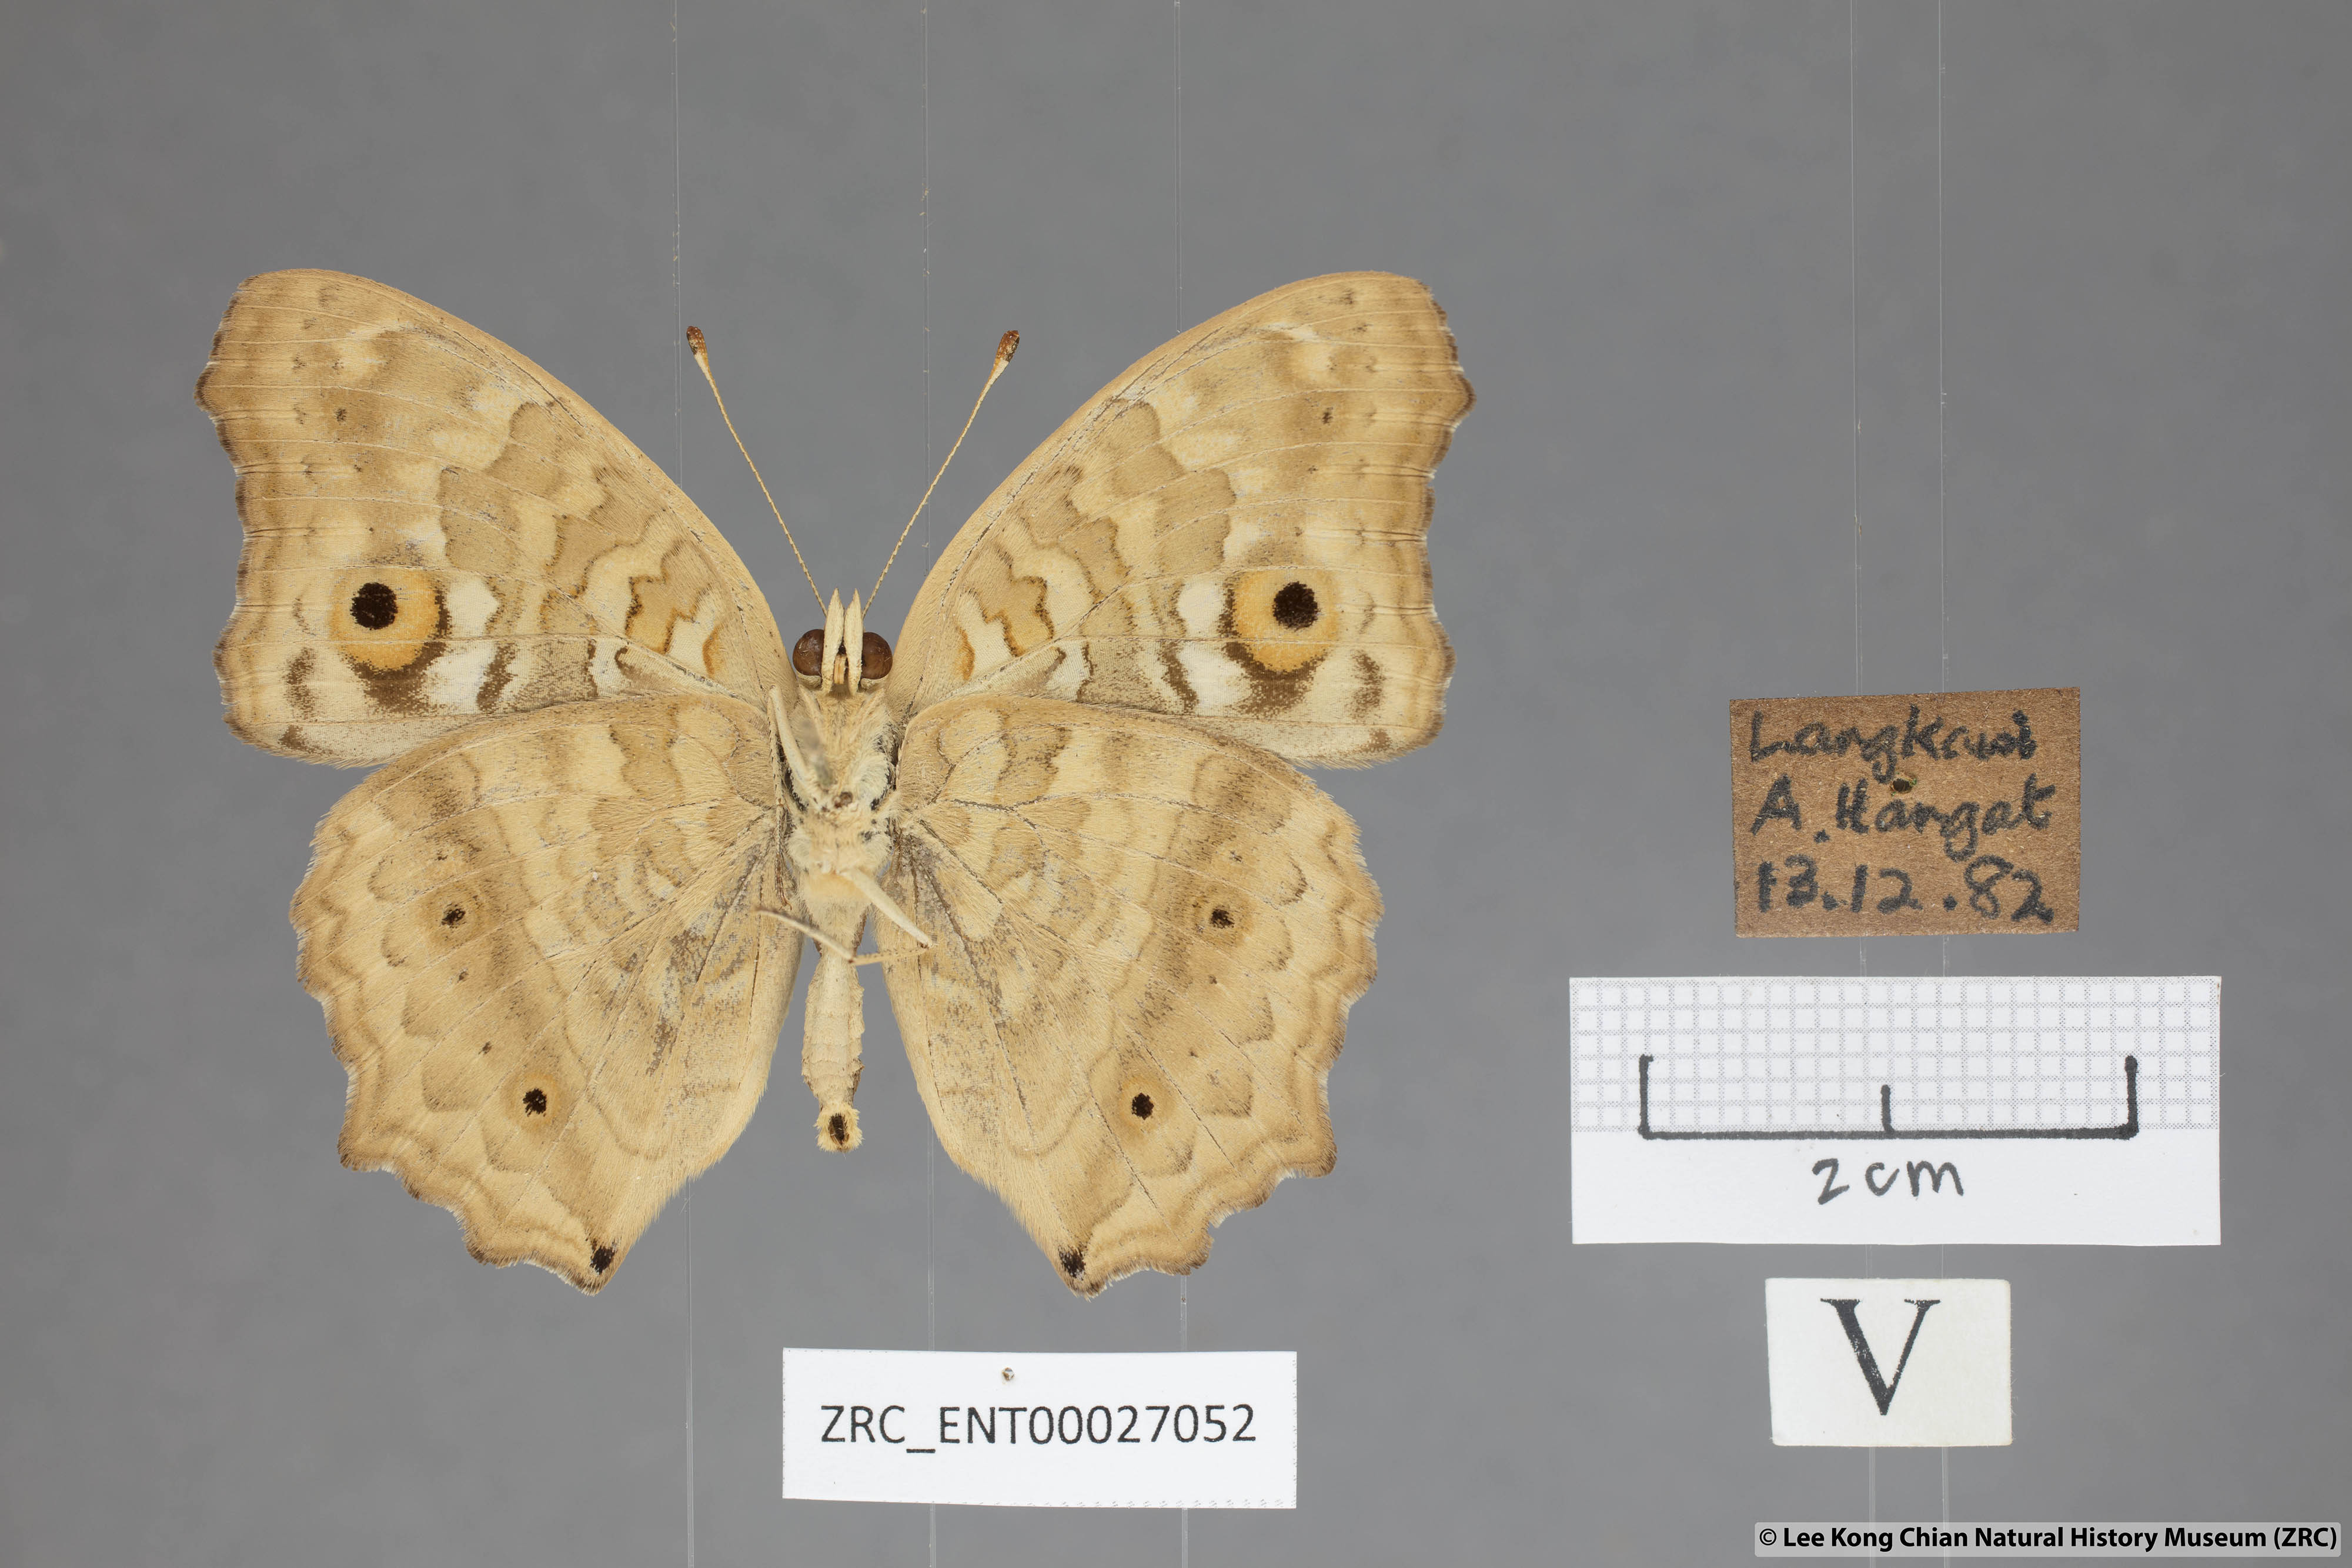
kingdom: Animalia
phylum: Arthropoda
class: Insecta
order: Lepidoptera
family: Nymphalidae
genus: Junonia
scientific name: Junonia lemonias
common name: Lemon pansy
